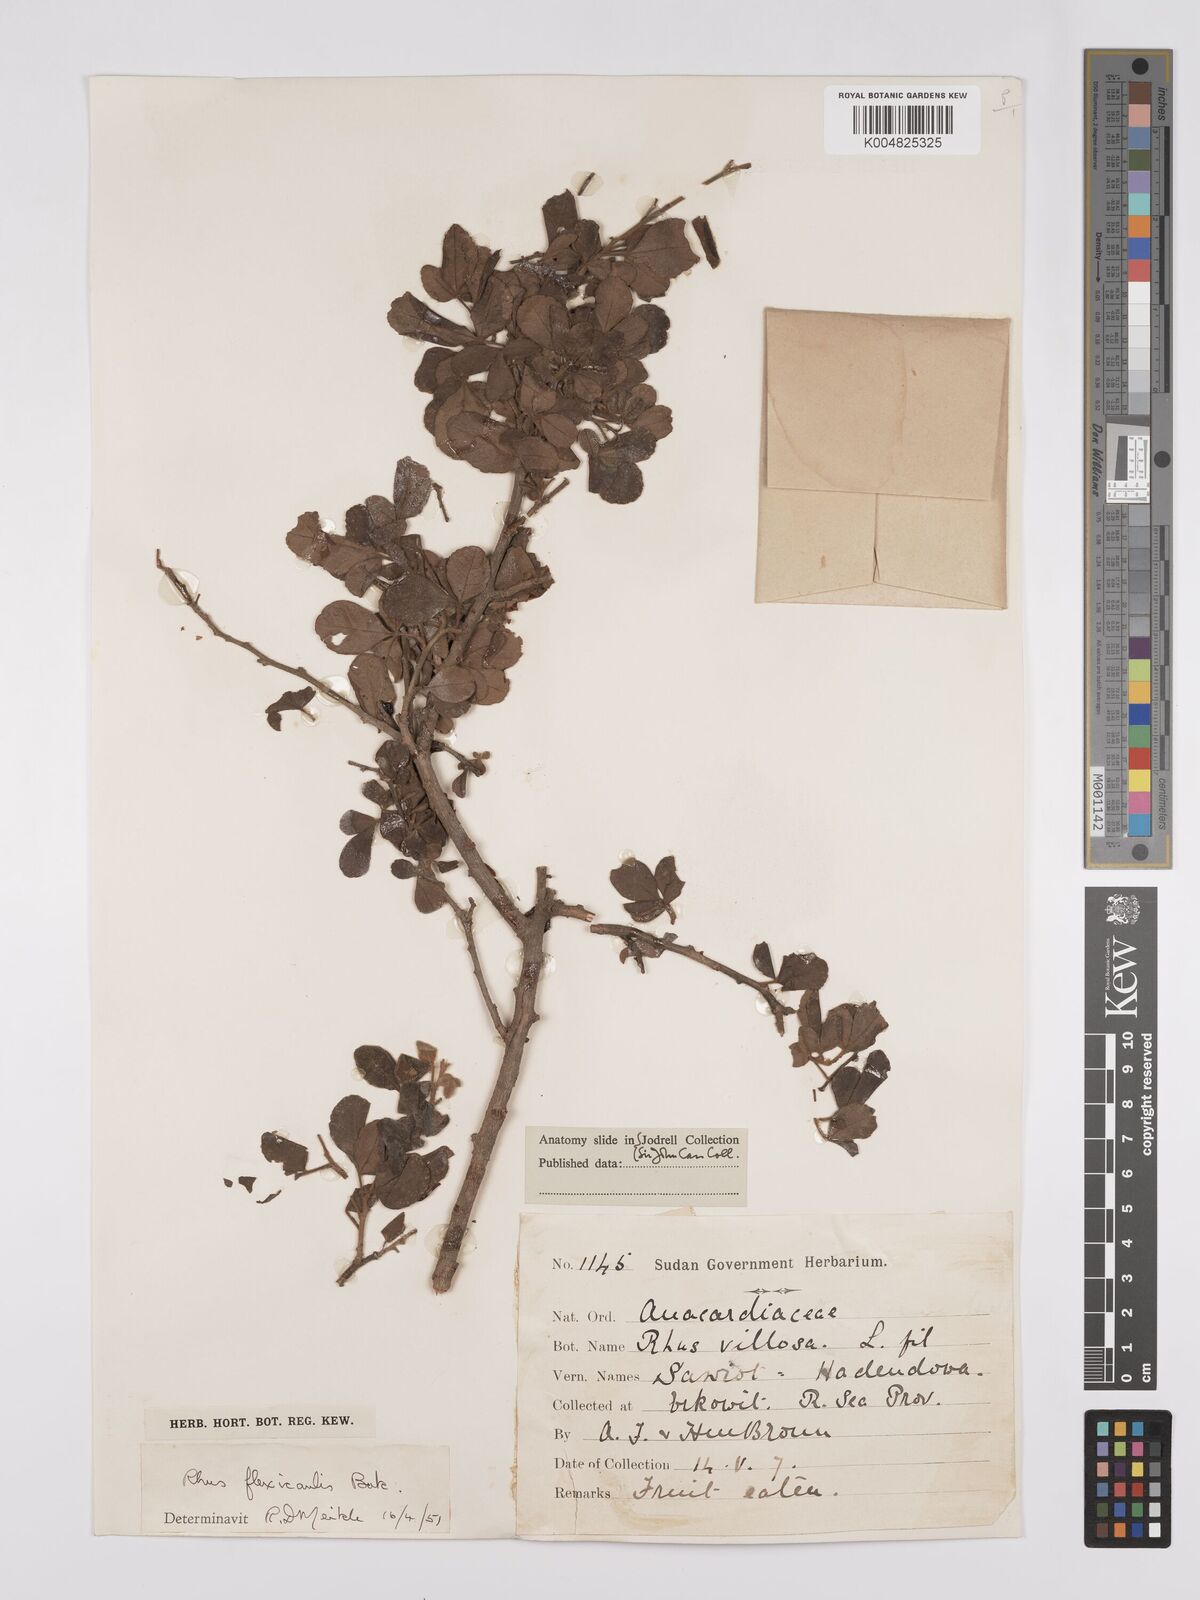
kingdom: Plantae
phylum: Tracheophyta
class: Magnoliopsida
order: Sapindales
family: Anacardiaceae
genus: Searsia
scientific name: Searsia flexicaulis
